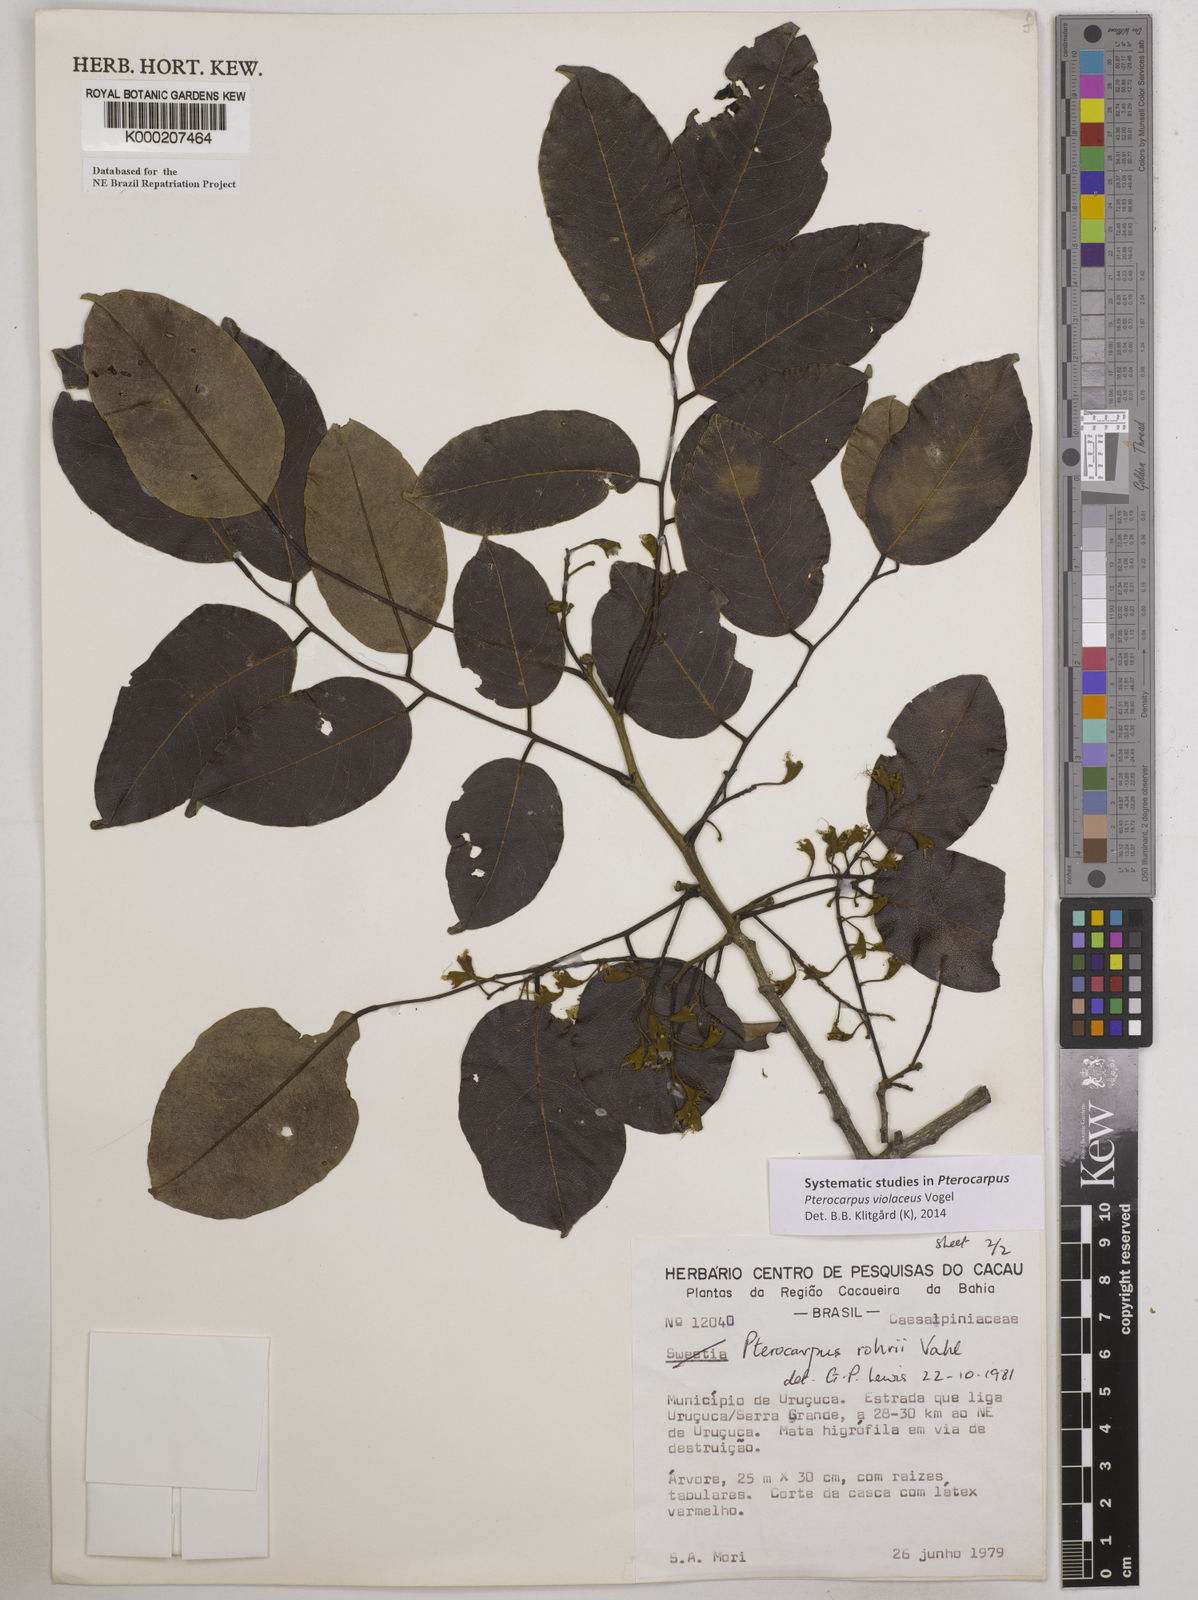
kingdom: Plantae
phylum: Tracheophyta
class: Magnoliopsida
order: Fabales
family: Fabaceae
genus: Pterocarpus
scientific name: Pterocarpus rohrii
